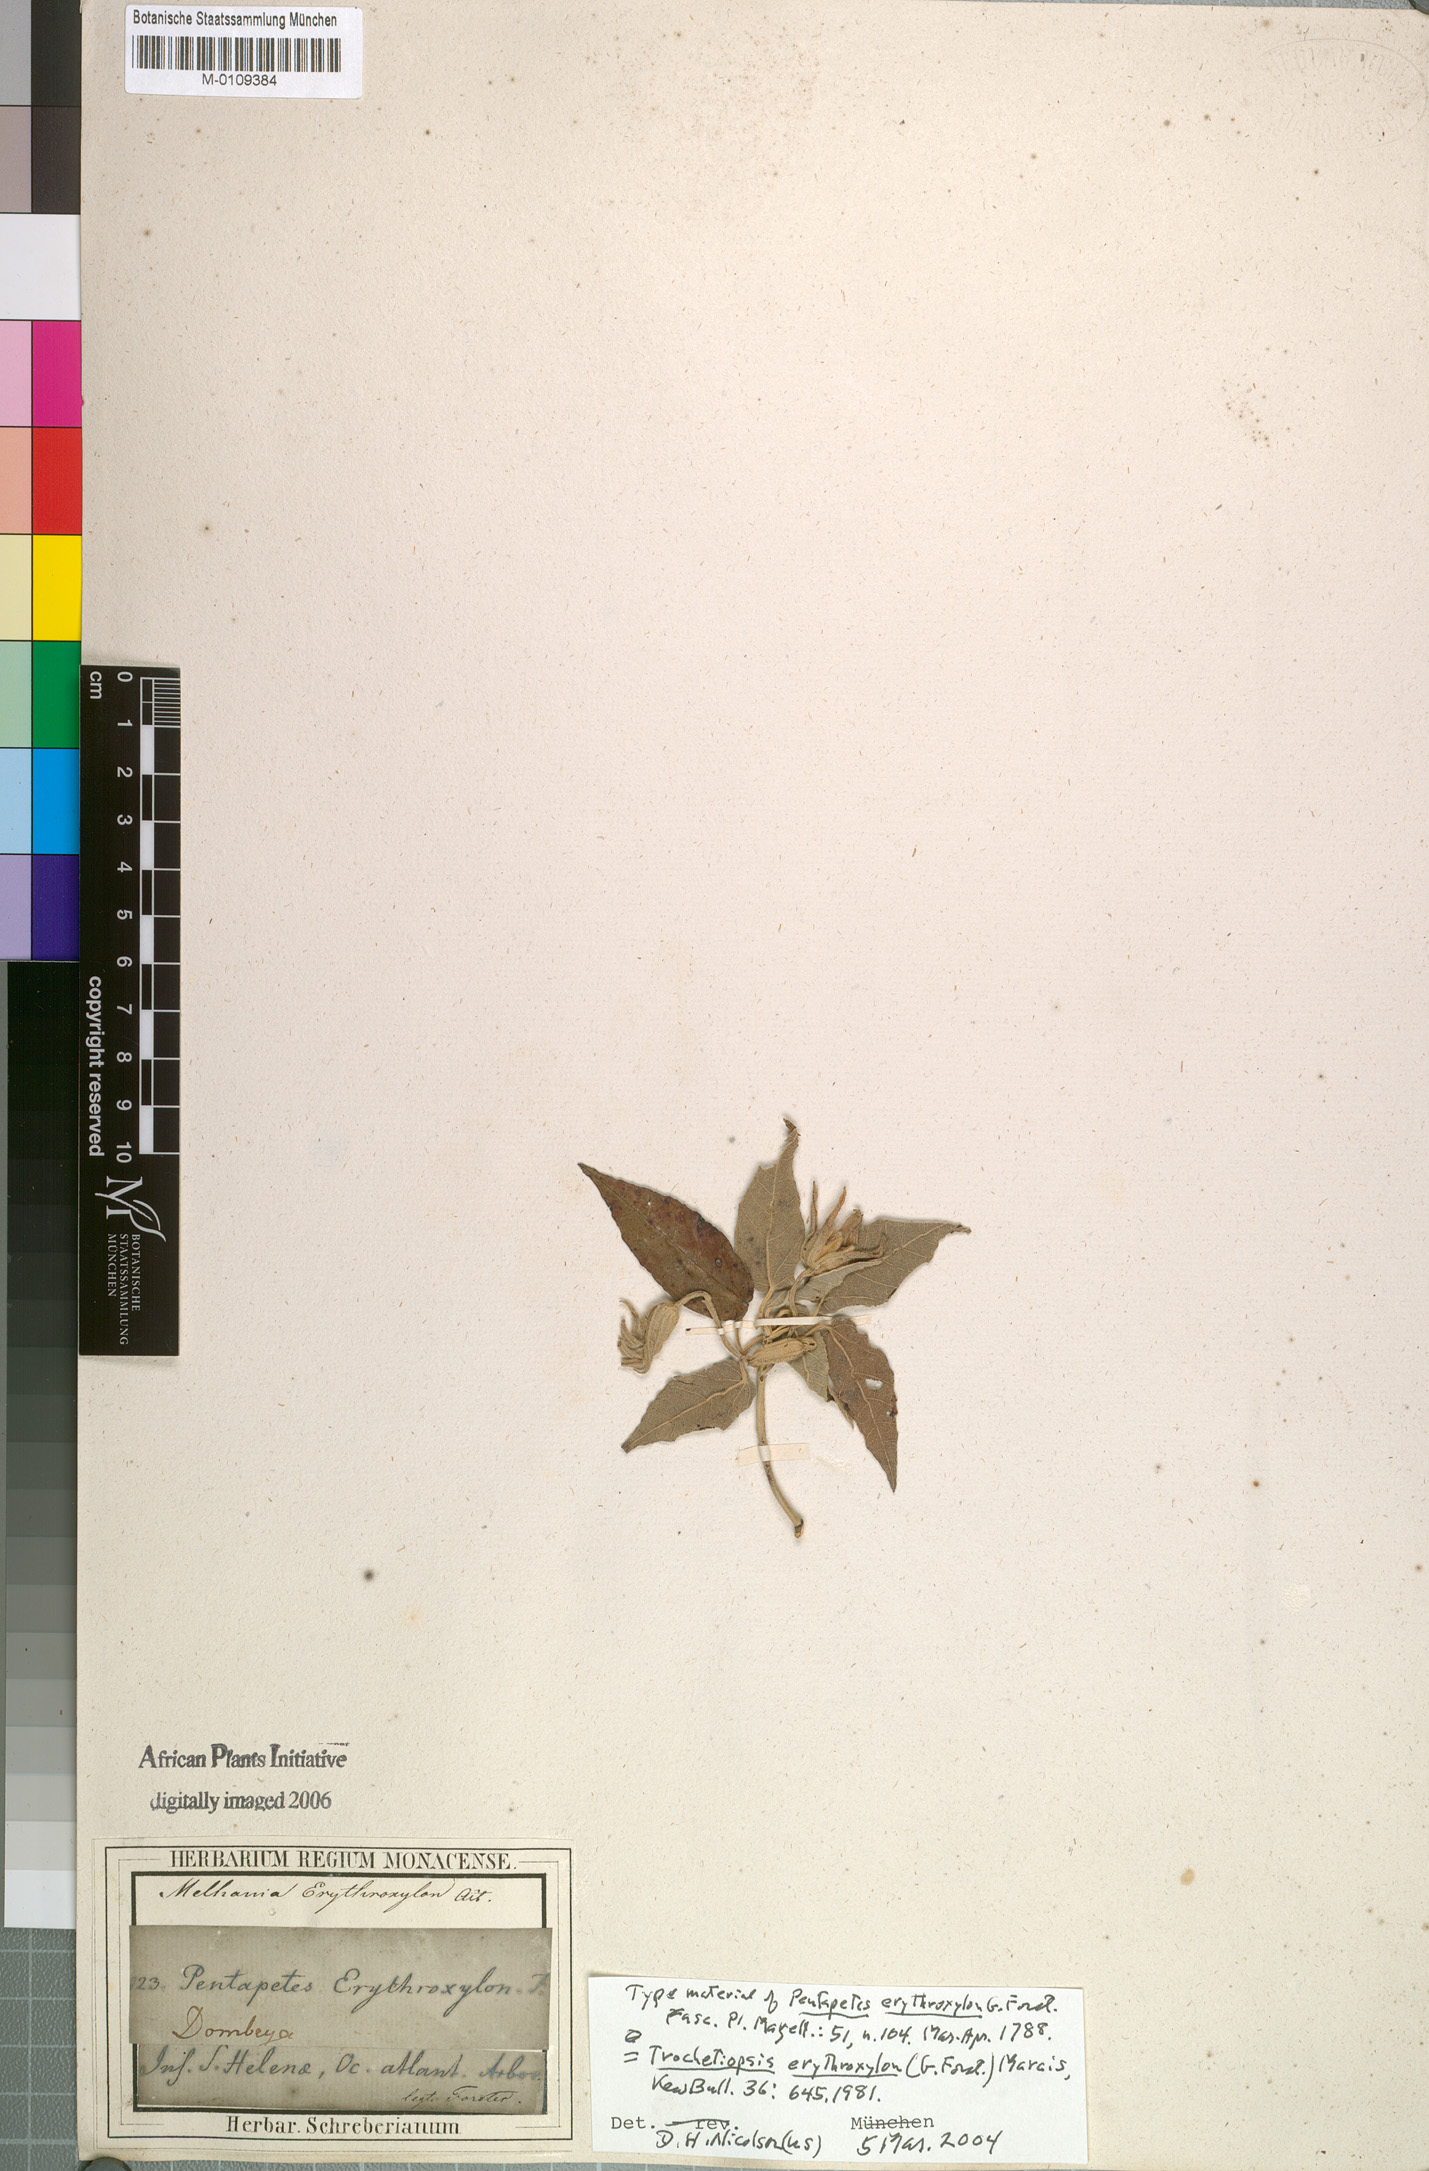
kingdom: Plantae
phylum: Tracheophyta
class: Magnoliopsida
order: Malvales
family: Malvaceae
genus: Melhania
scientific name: Melhania erythroxylon
